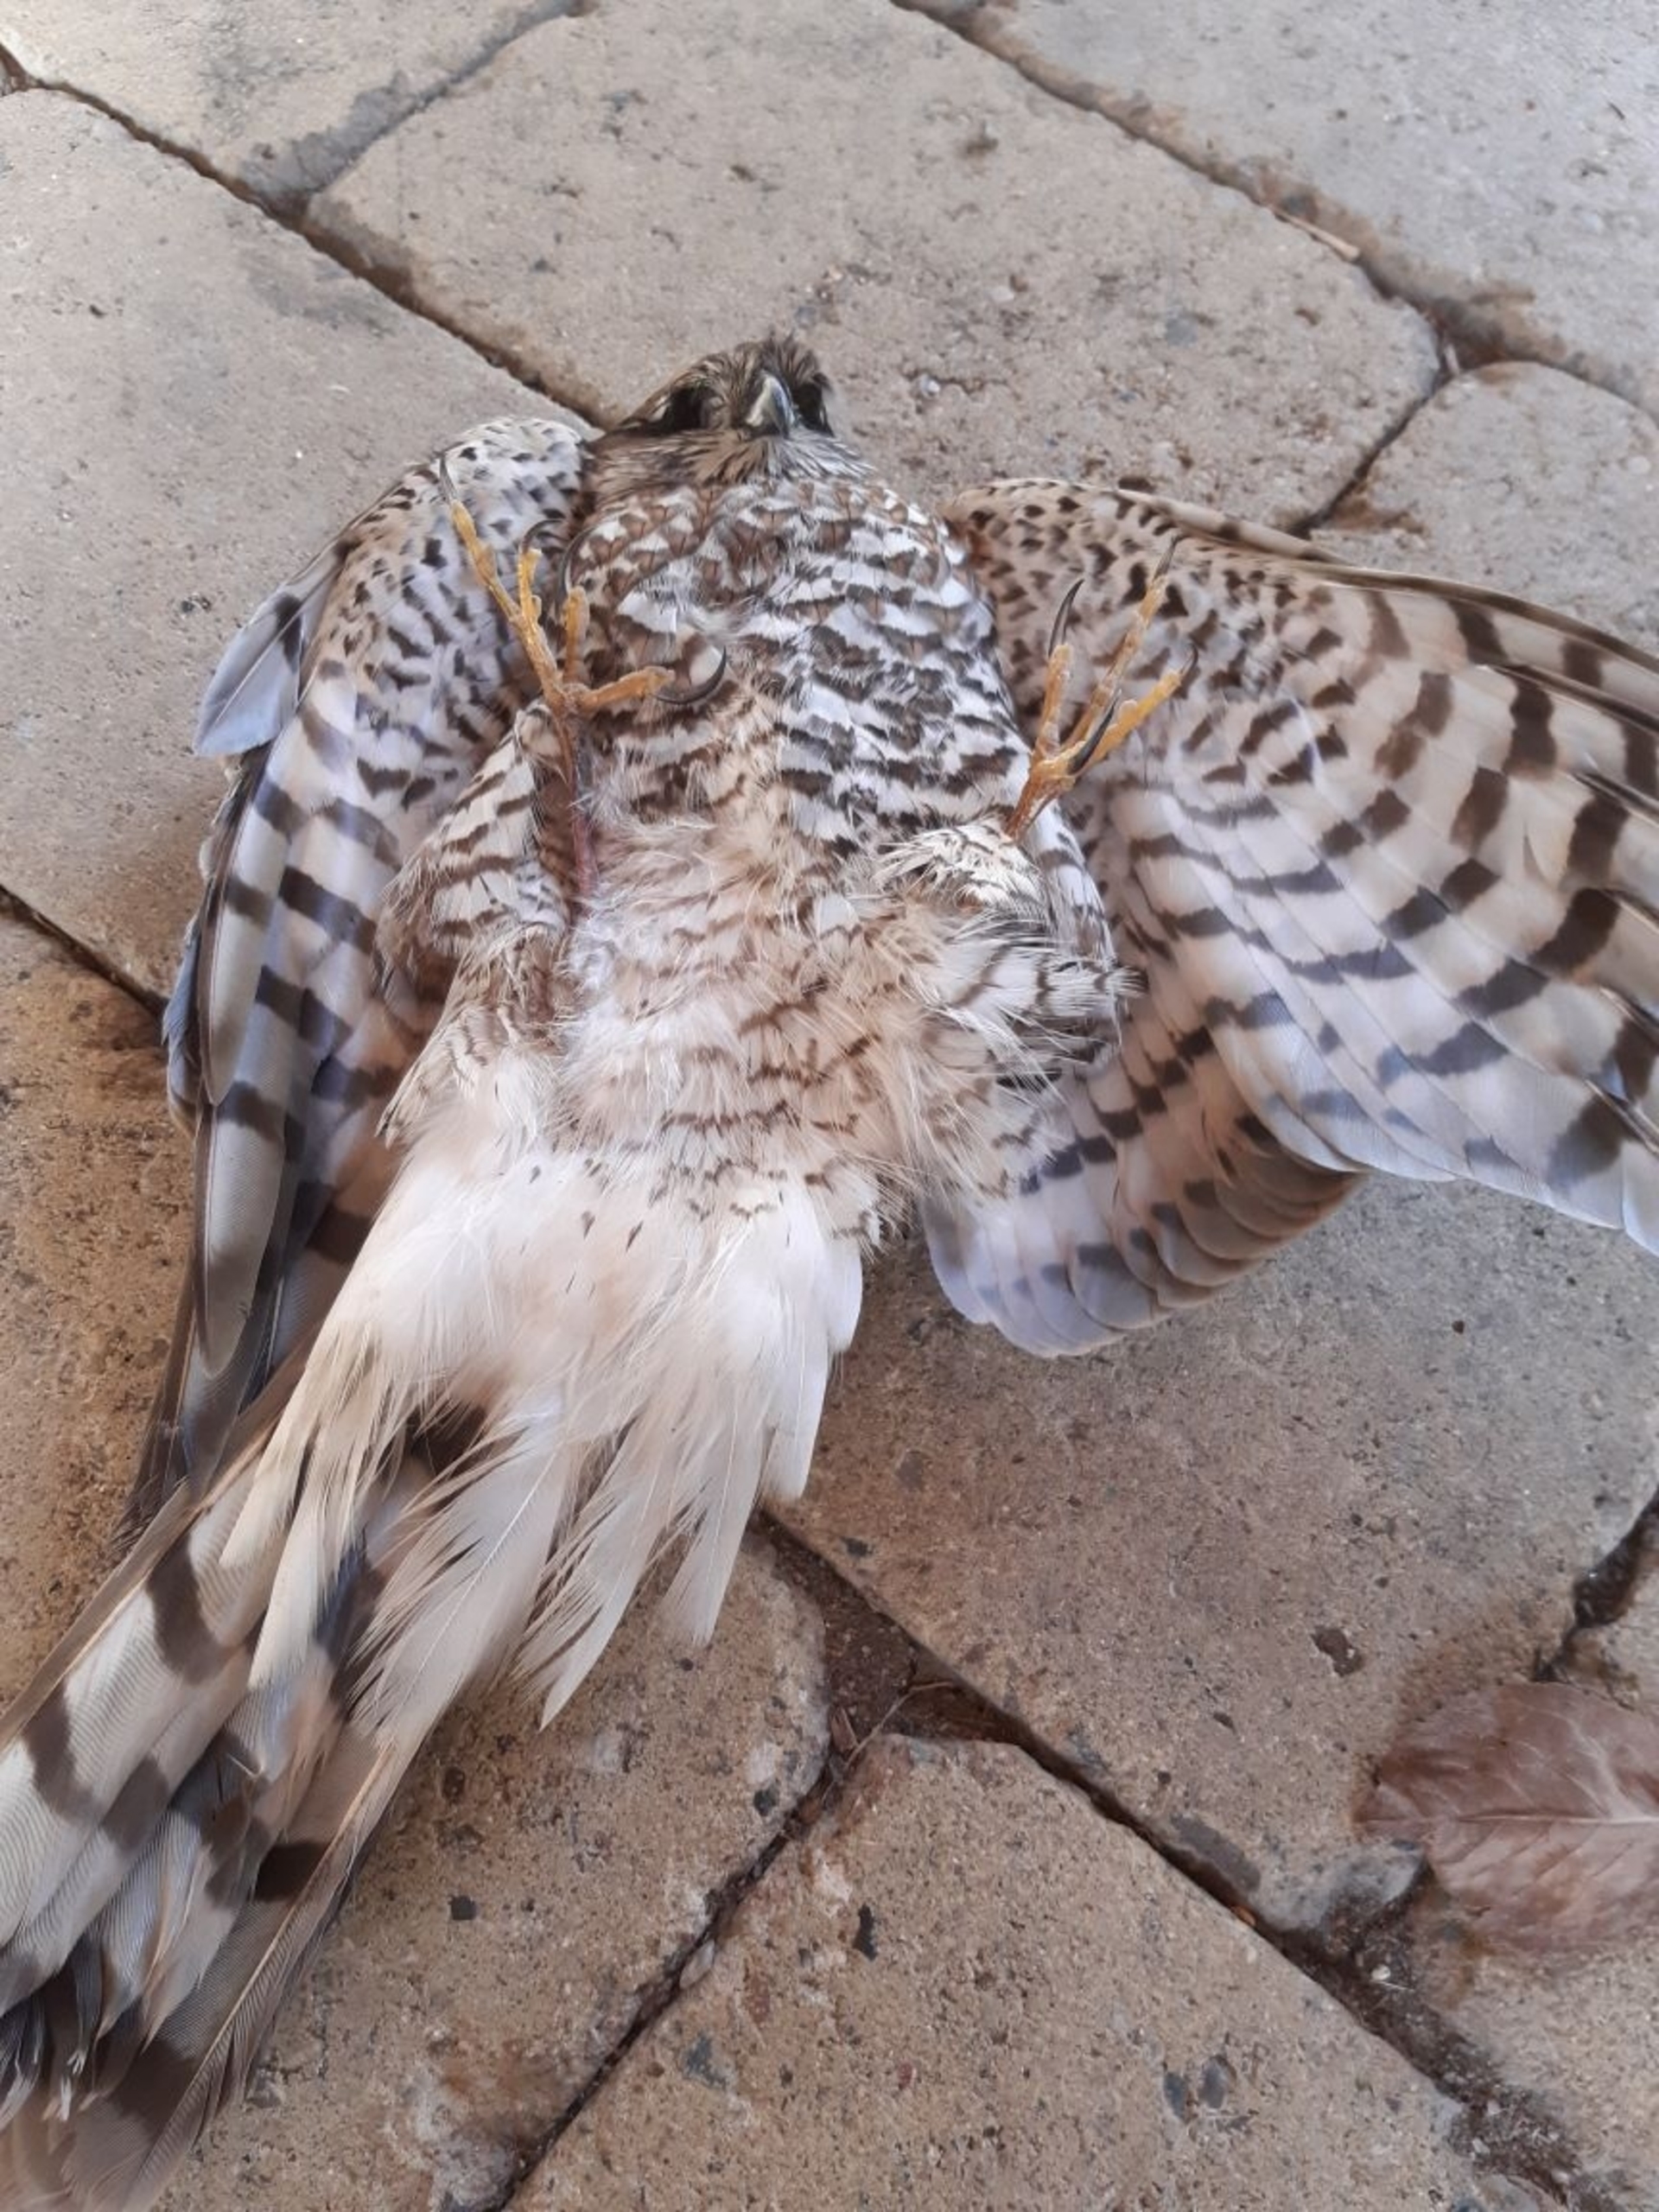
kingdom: Animalia
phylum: Chordata
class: Aves
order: Accipitriformes
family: Accipitridae
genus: Accipiter
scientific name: Accipiter nisus
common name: Spurvehøg
